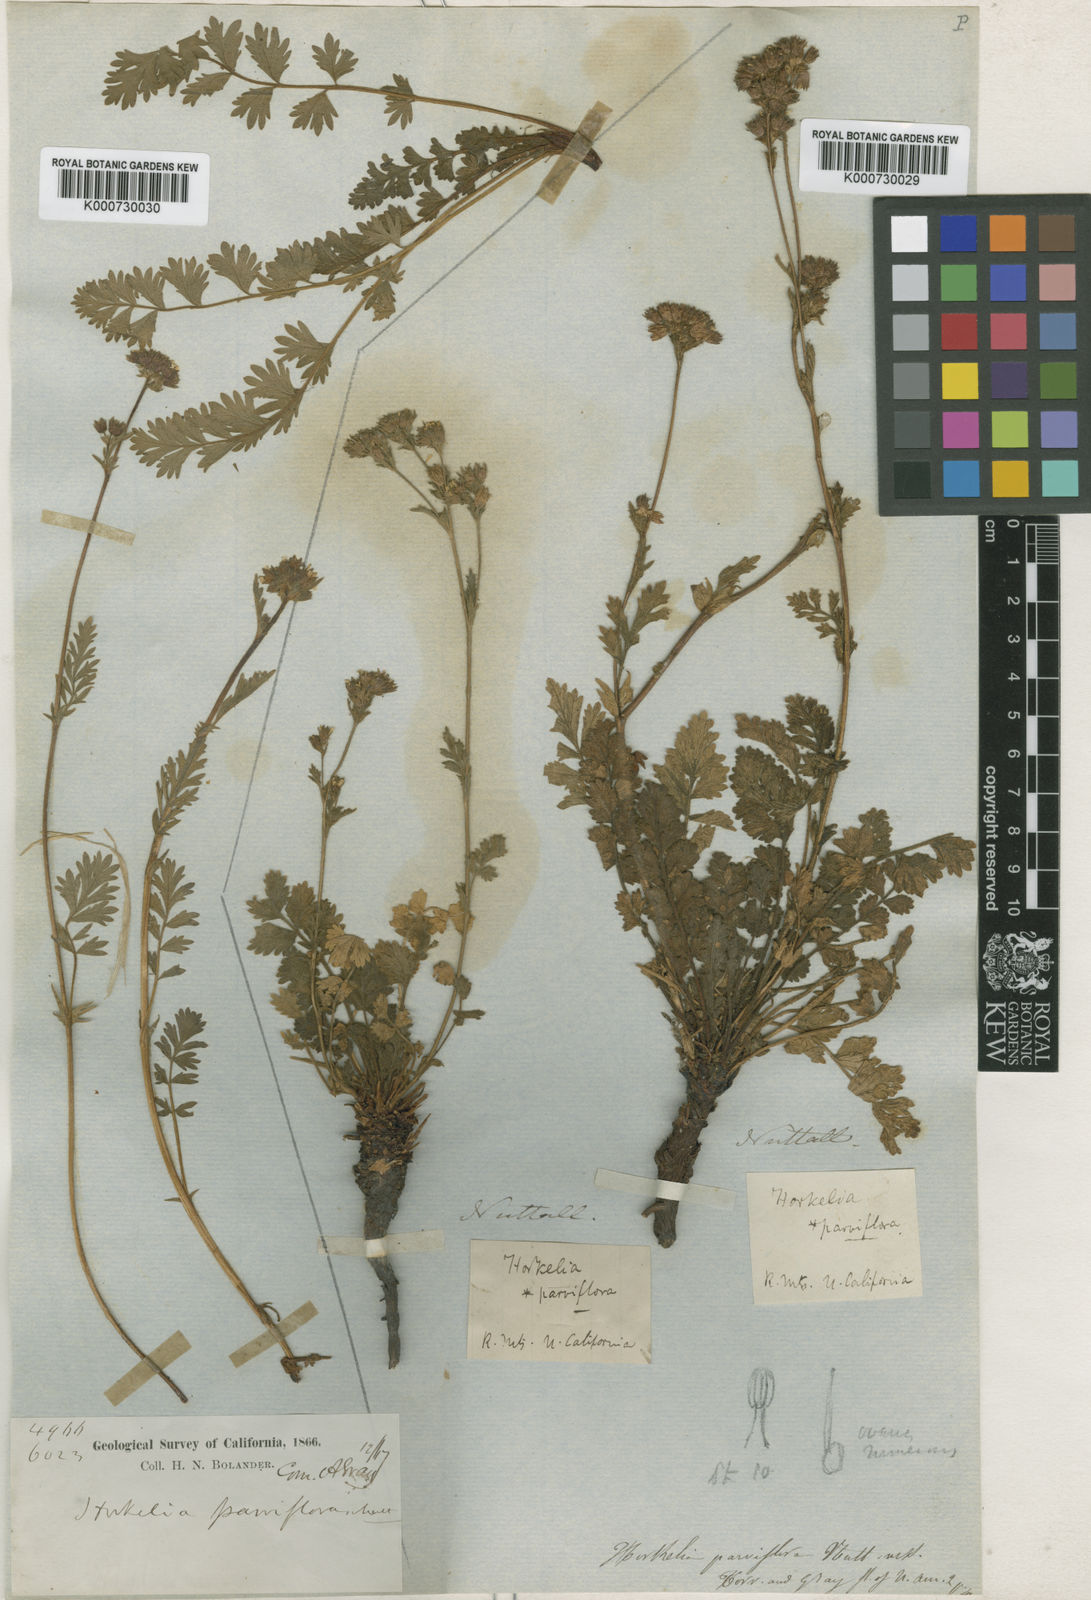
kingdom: Plantae
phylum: Tracheophyta
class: Magnoliopsida
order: Rosales
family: Rosaceae
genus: Potentilla
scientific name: Potentilla
